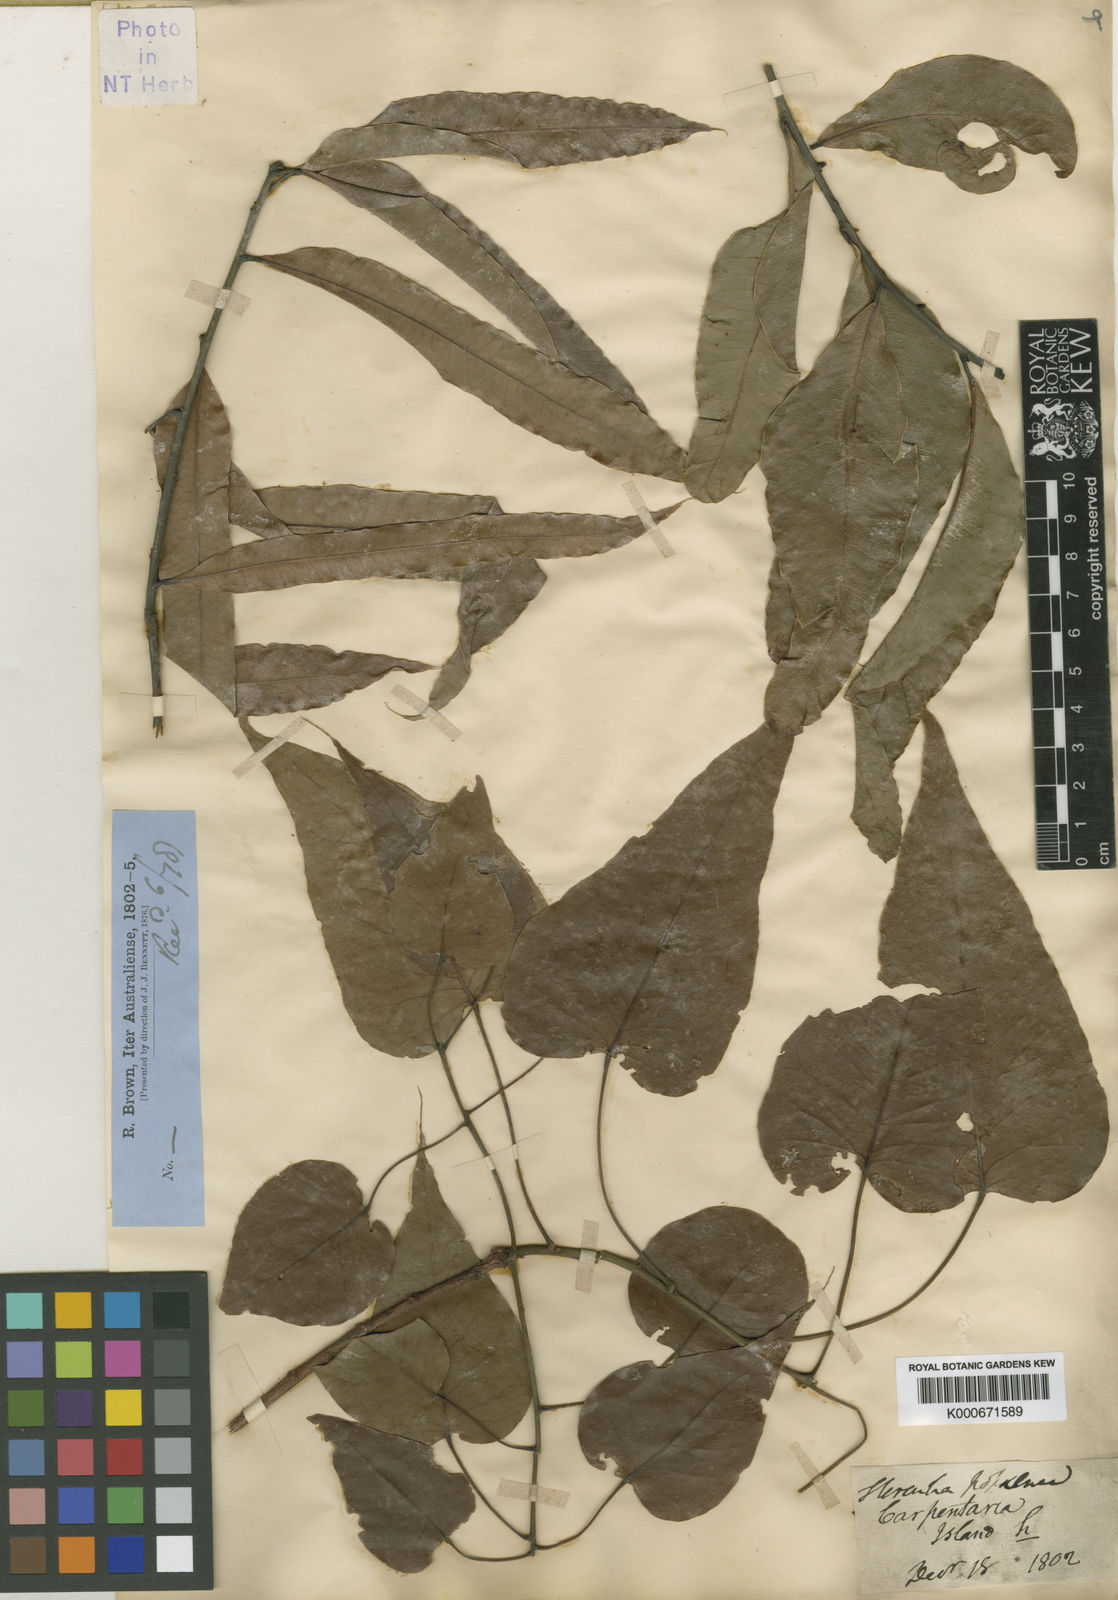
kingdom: Plantae
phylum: Tracheophyta
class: Magnoliopsida
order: Malvales
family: Malvaceae
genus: Brachychiton
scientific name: Brachychiton diversifolius
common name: Northern kurrajong
